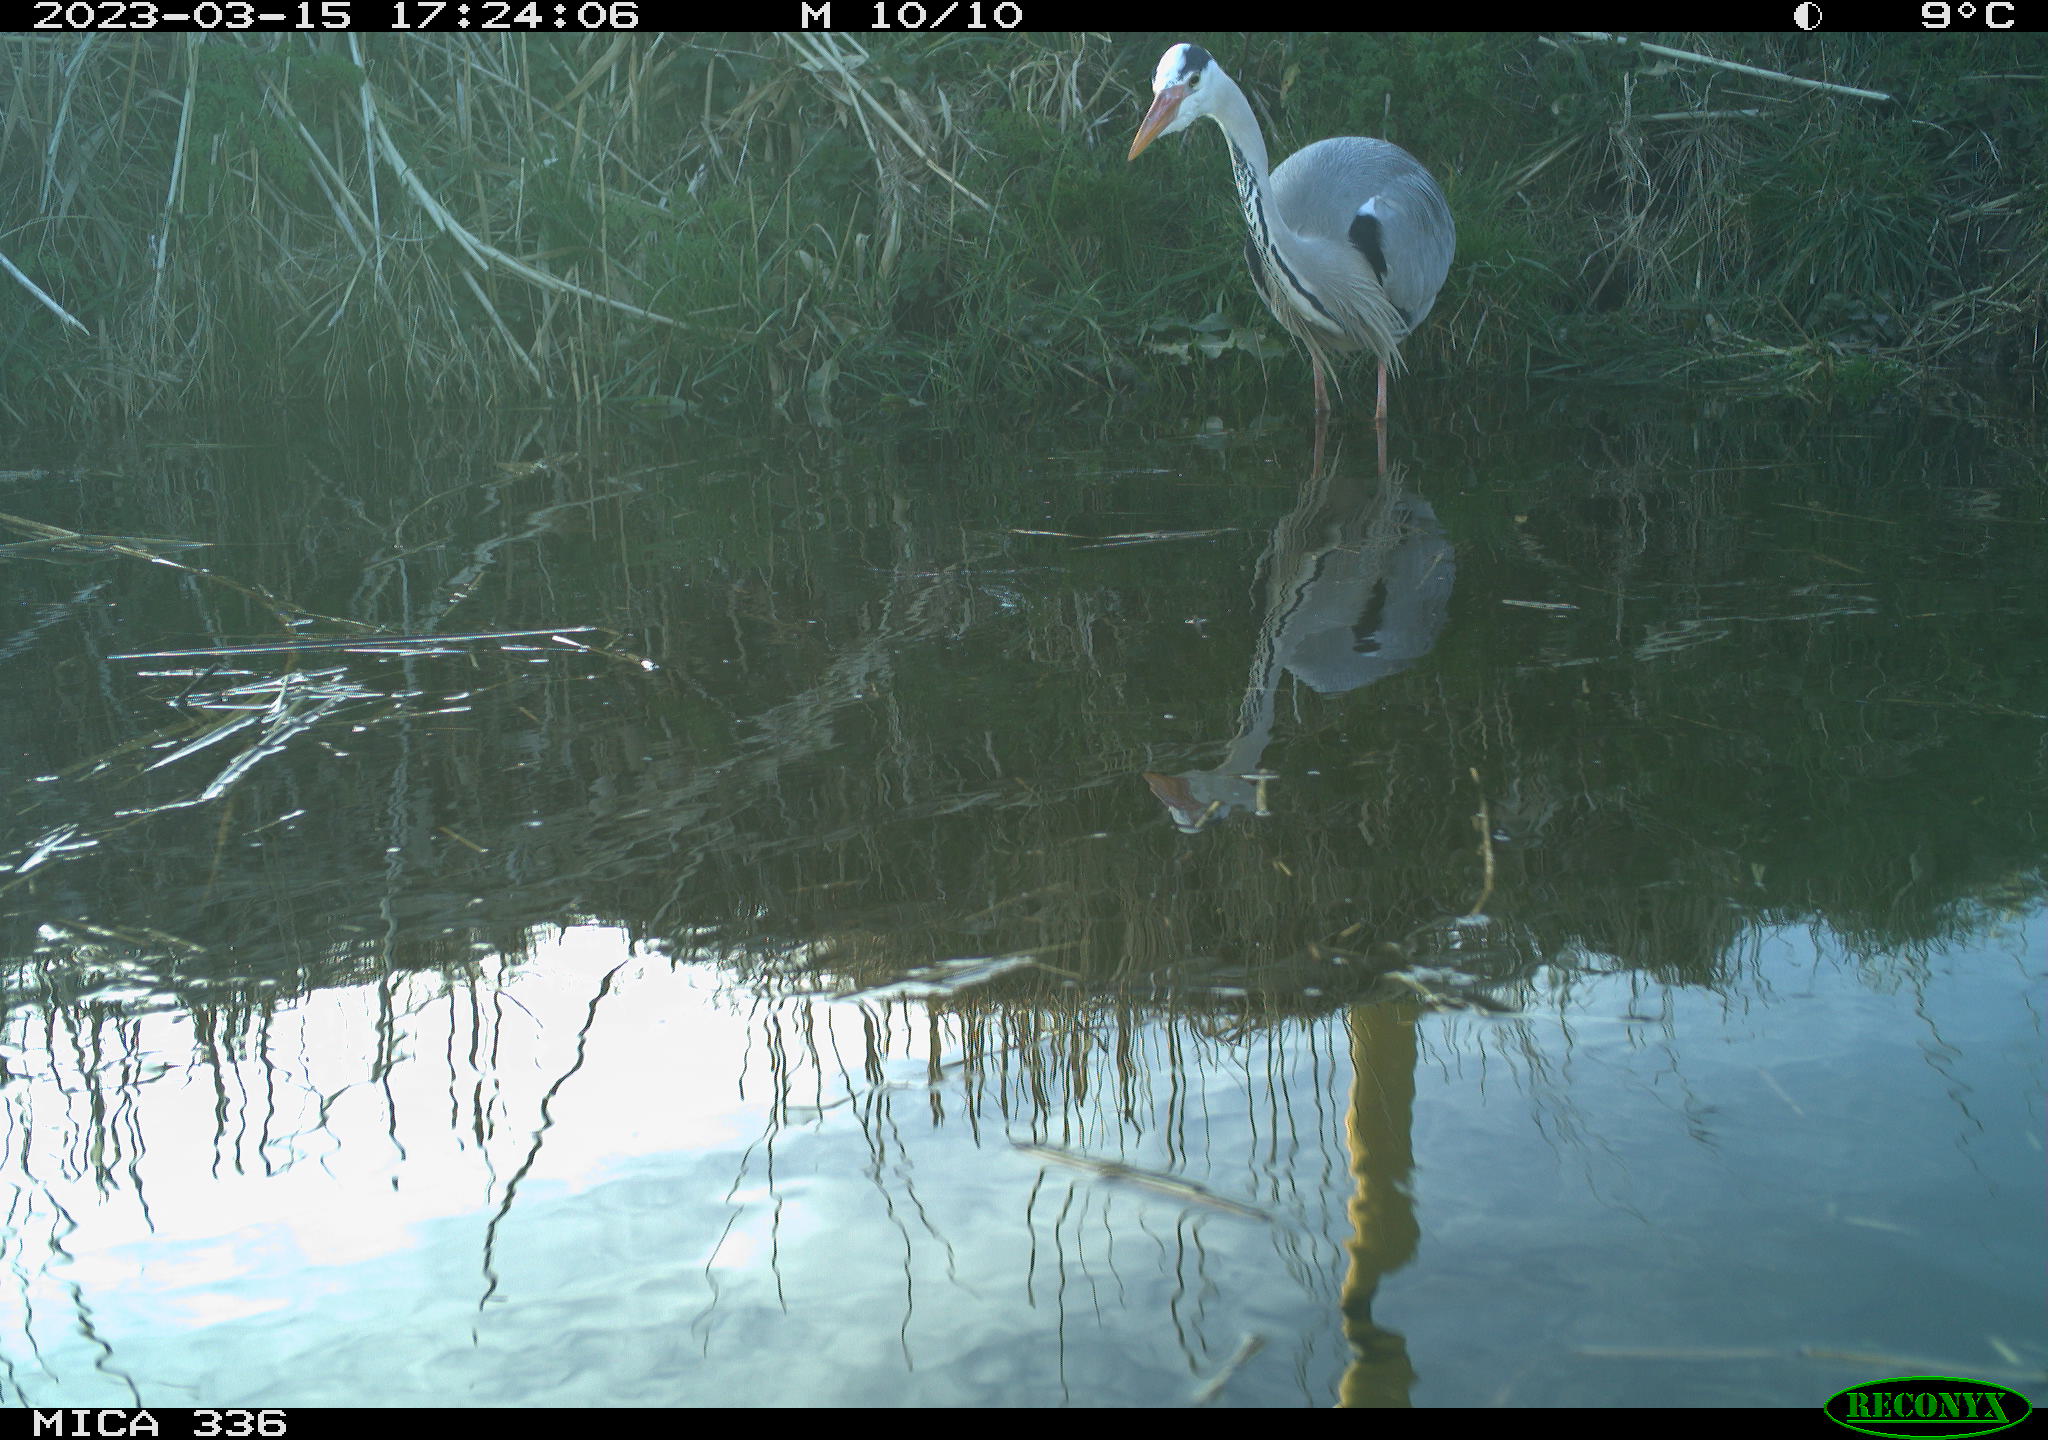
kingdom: Animalia
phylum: Chordata
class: Aves
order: Anseriformes
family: Anatidae
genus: Anas
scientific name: Anas
